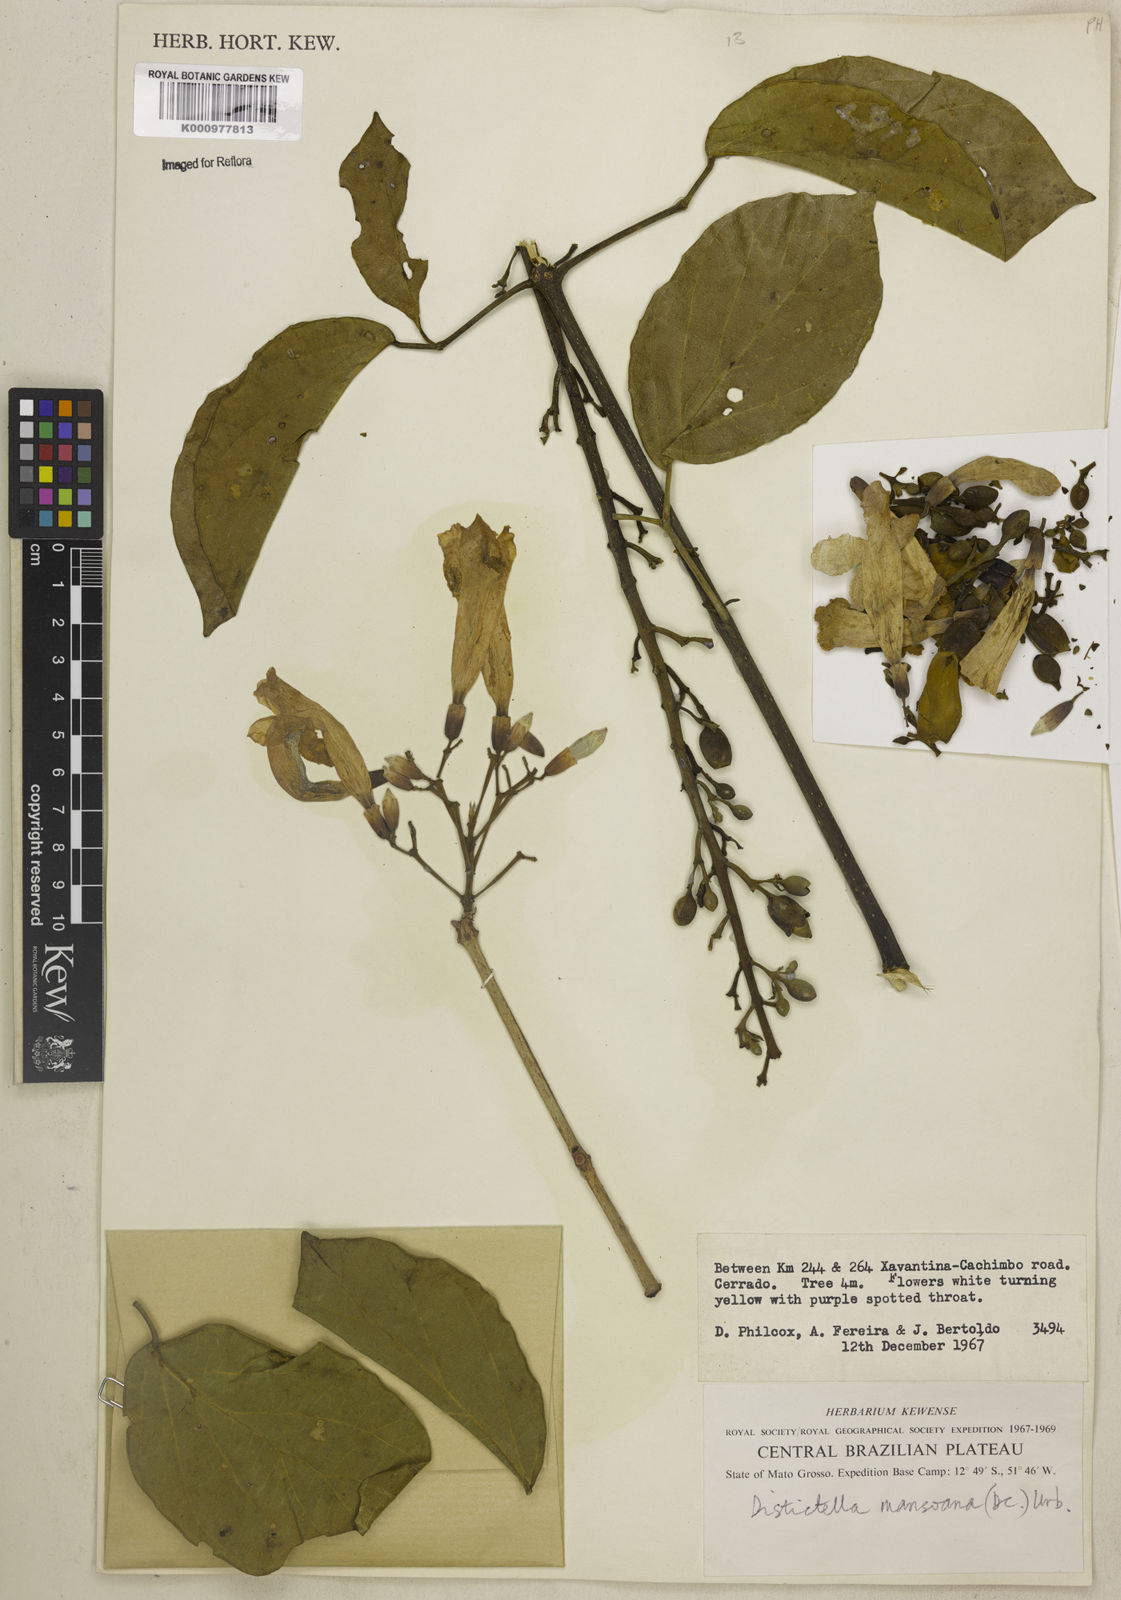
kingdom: Plantae
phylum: Tracheophyta
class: Magnoliopsida
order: Lamiales
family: Bignoniaceae
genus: Amphilophium
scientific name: Amphilophium mansoanum
